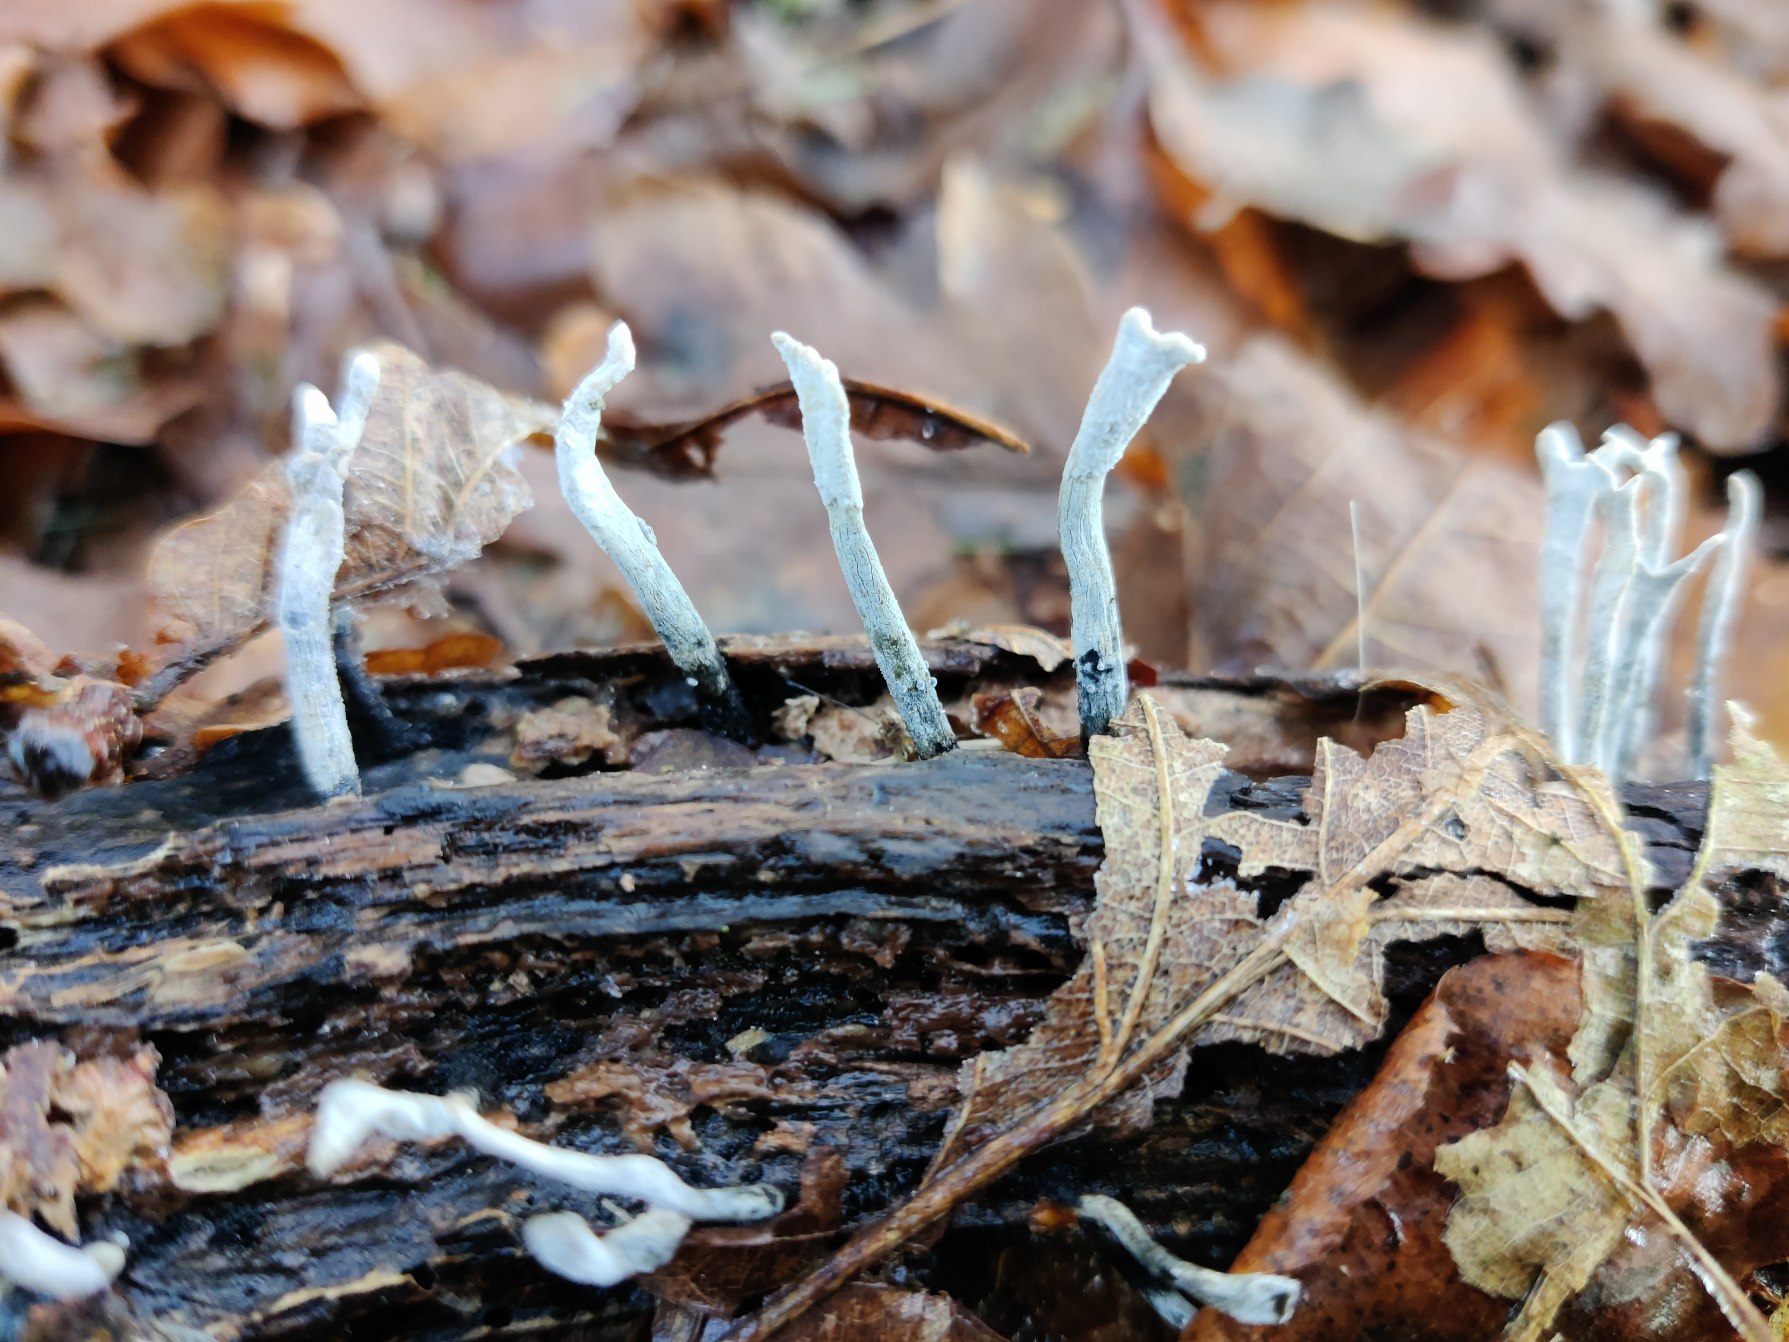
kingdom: Fungi
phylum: Ascomycota
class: Sordariomycetes
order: Xylariales
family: Xylariaceae
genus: Xylaria
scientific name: Xylaria hypoxylon
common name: Grenet stødsvamp
